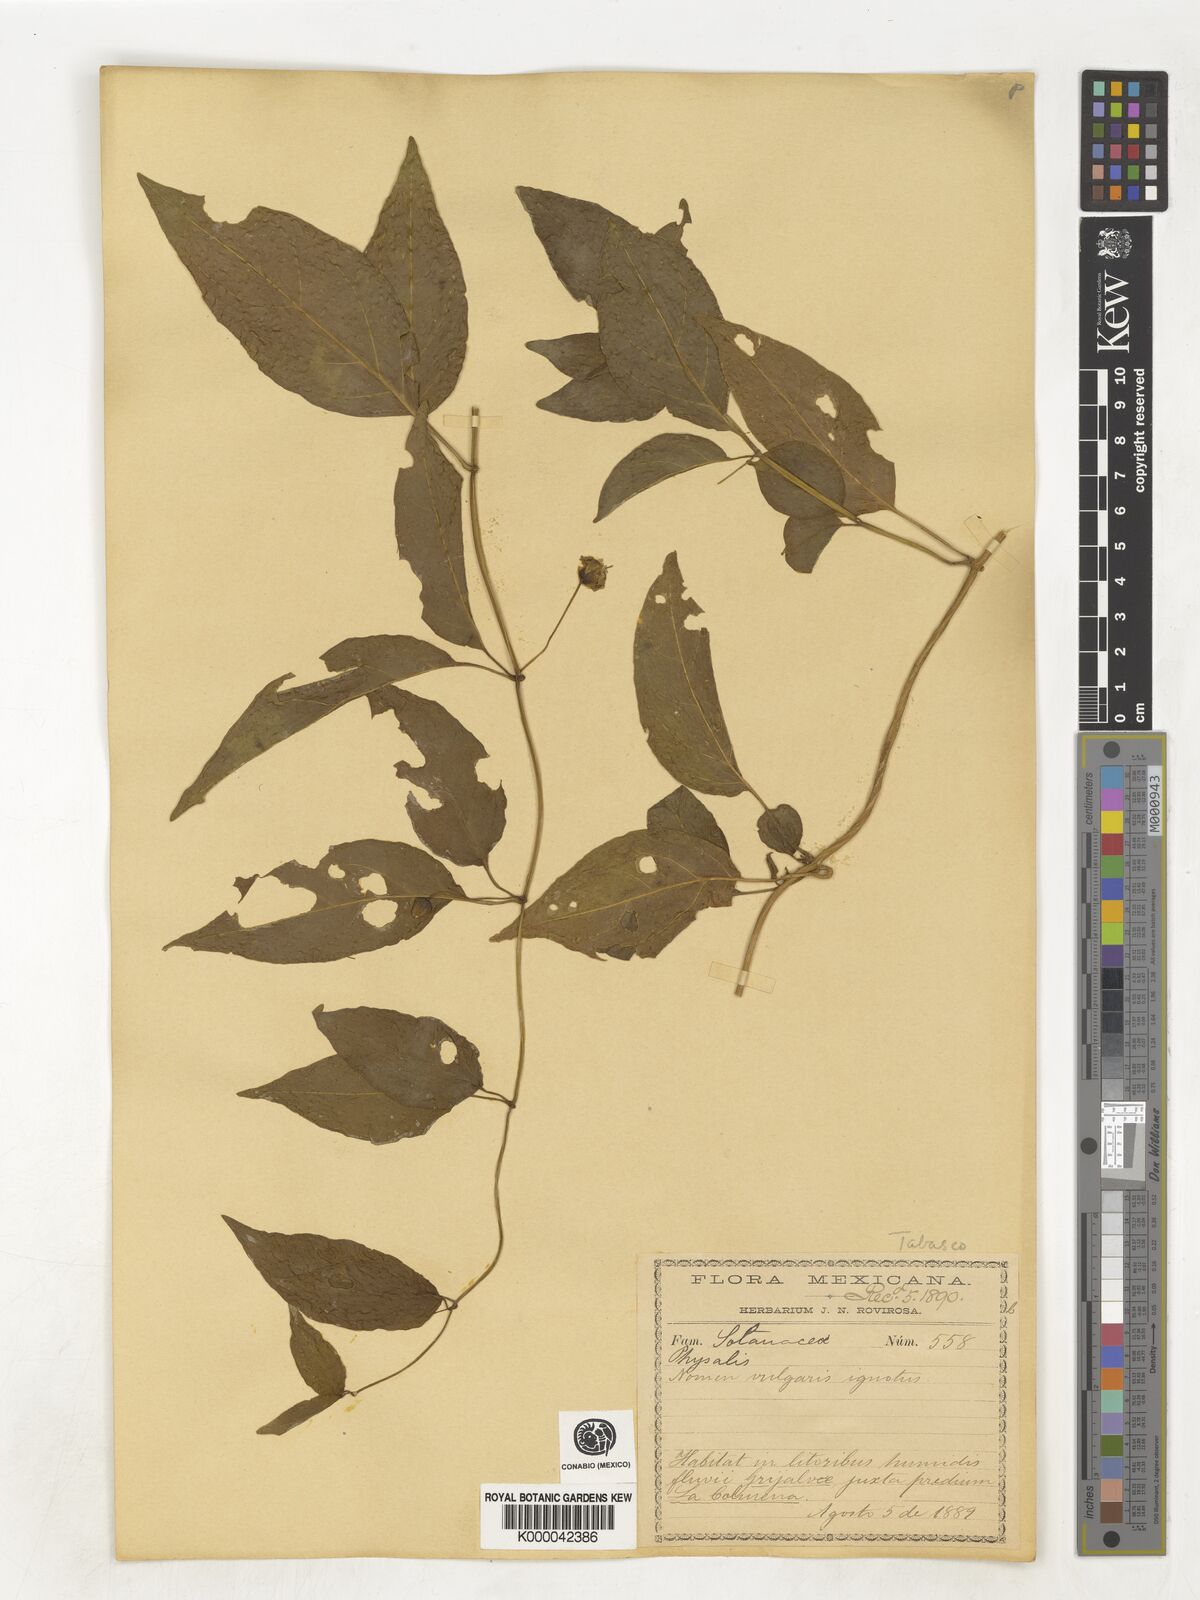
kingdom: Plantae
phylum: Tracheophyta
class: Magnoliopsida
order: Solanales
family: Solanaceae
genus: Physalis
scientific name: Physalis
